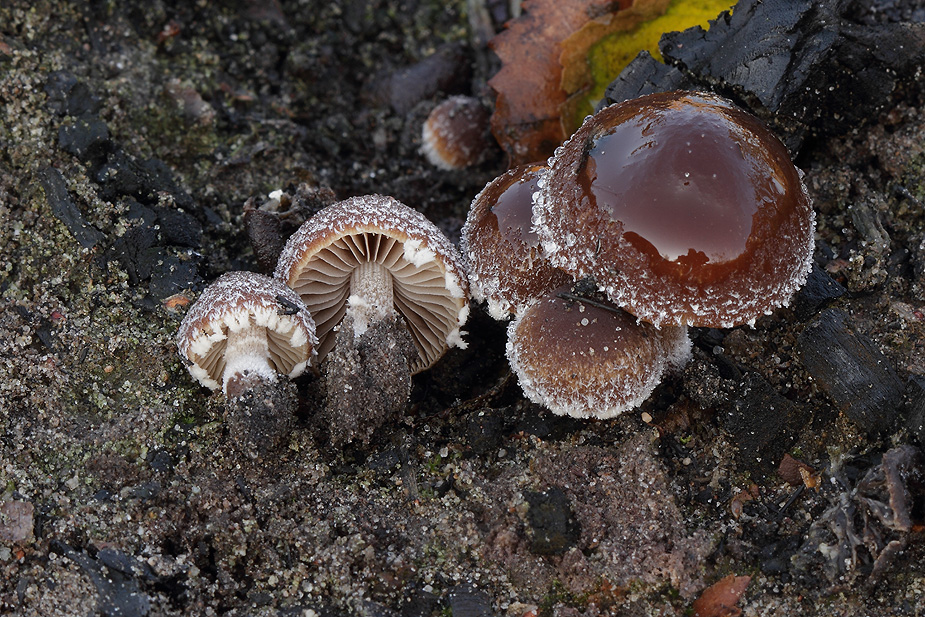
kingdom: Fungi
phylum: Basidiomycota
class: Agaricomycetes
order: Agaricales
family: Psathyrellaceae
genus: Psathyrella
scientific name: Psathyrella pennata
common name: kul-mørkhat
